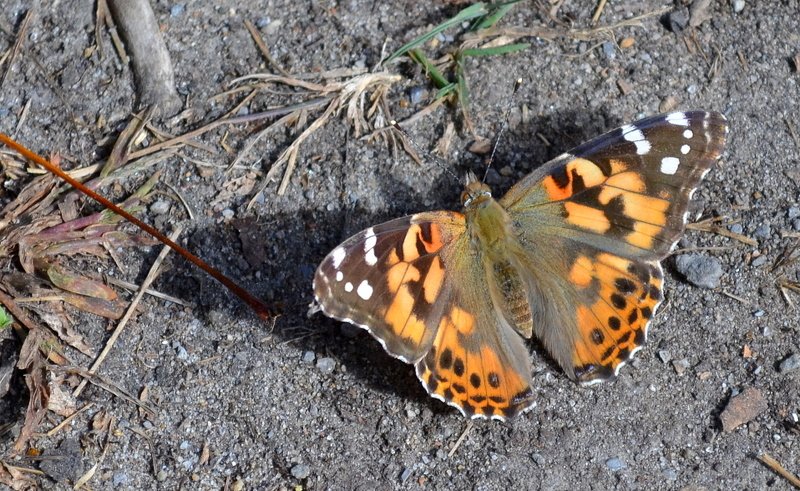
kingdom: Animalia
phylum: Arthropoda
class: Insecta
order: Lepidoptera
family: Nymphalidae
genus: Vanessa
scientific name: Vanessa cardui
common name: Painted Lady
